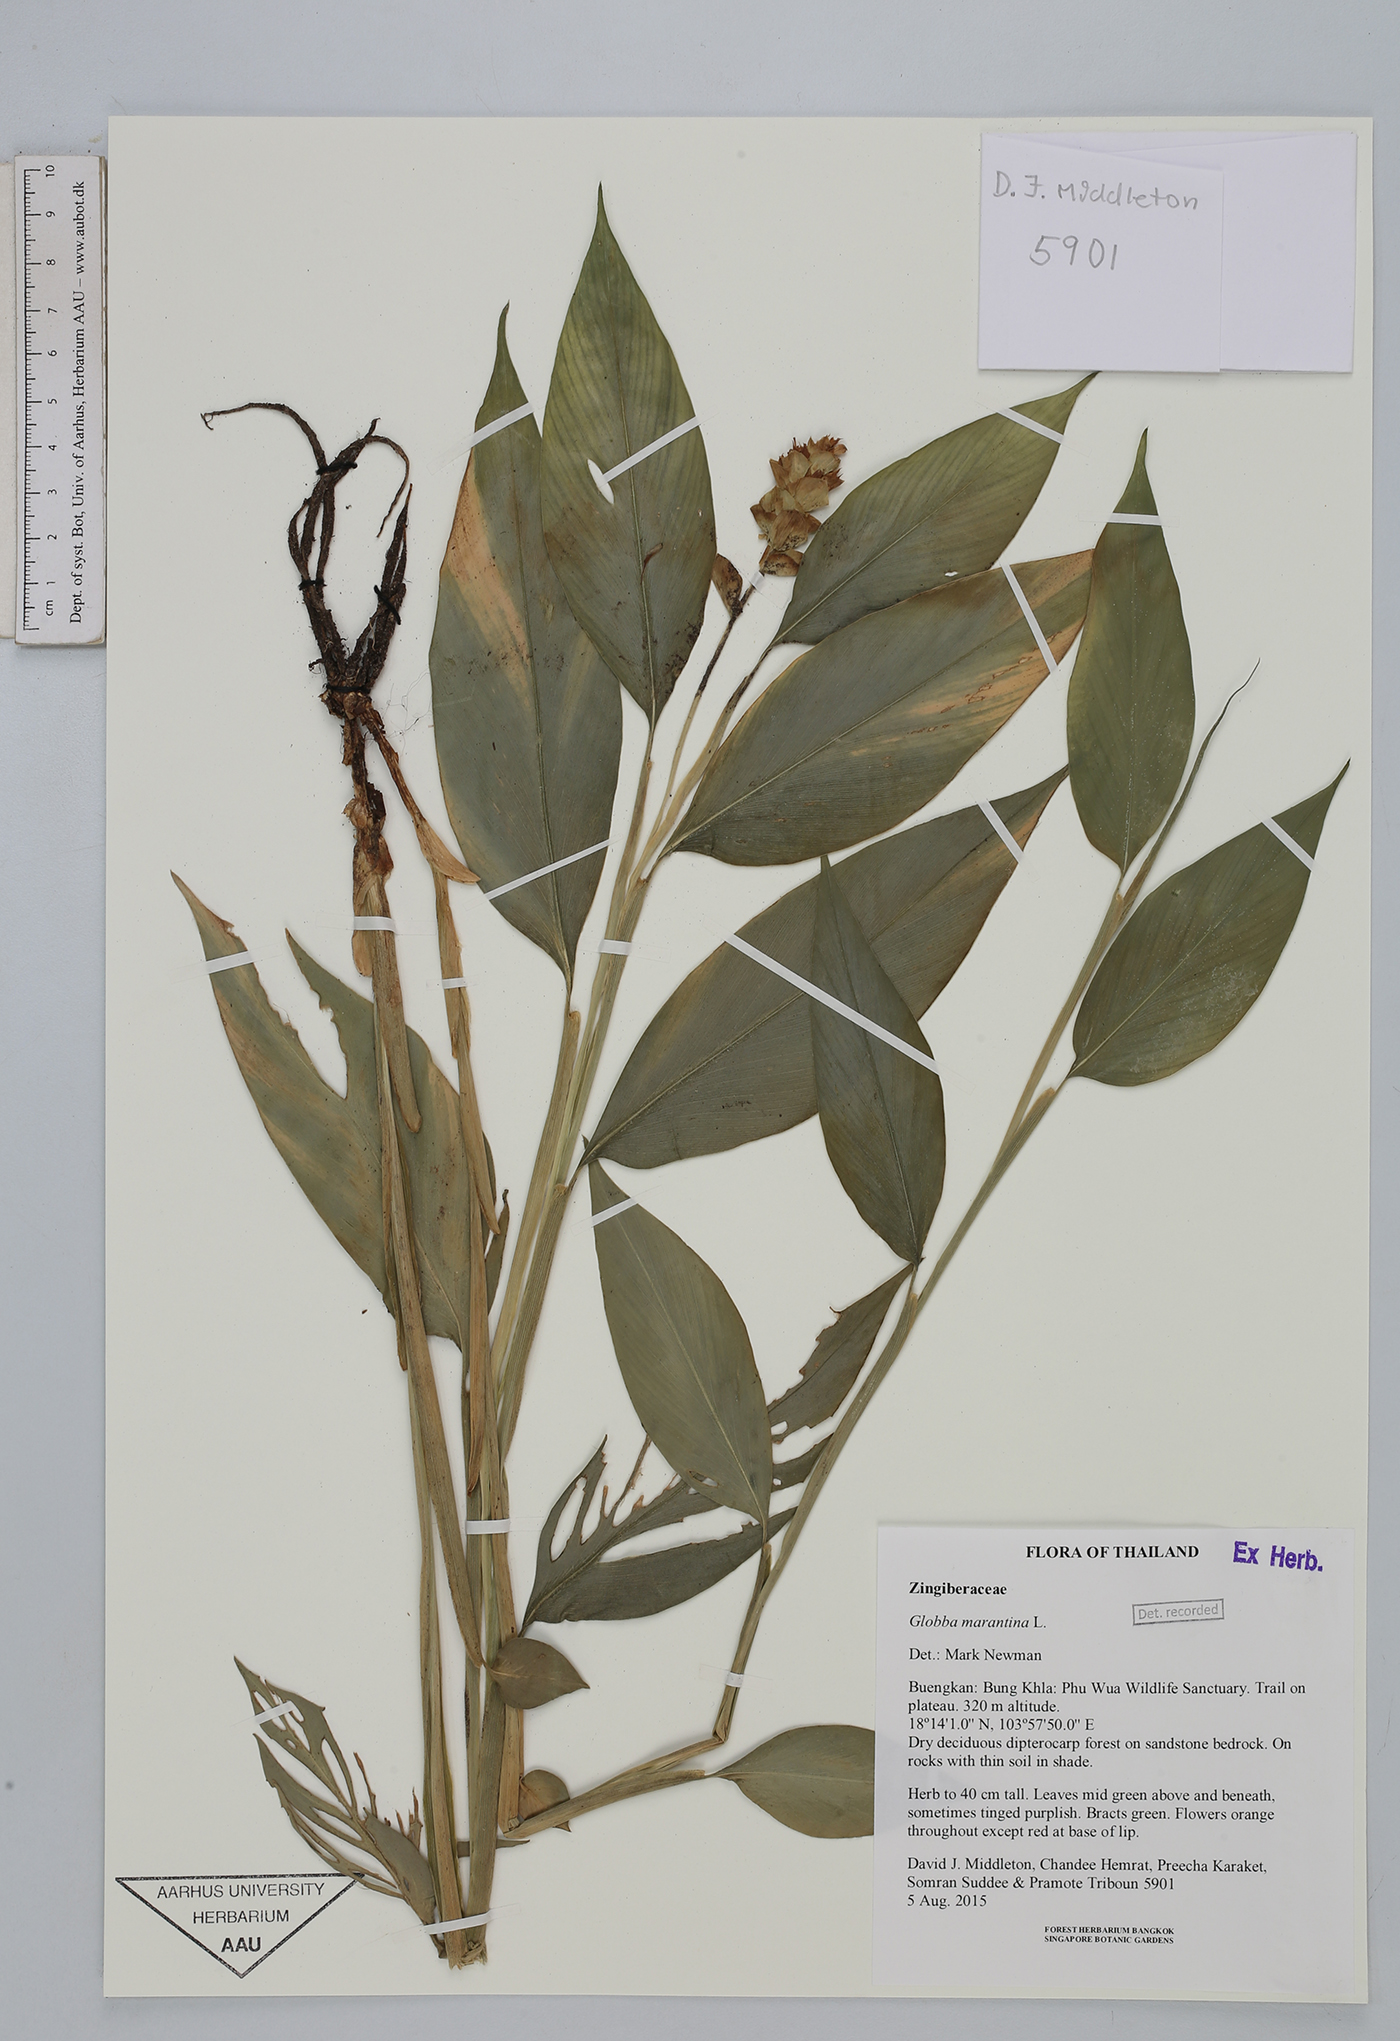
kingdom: Plantae
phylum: Tracheophyta
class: Liliopsida
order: Zingiberales
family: Zingiberaceae
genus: Globba
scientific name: Globba marantina
